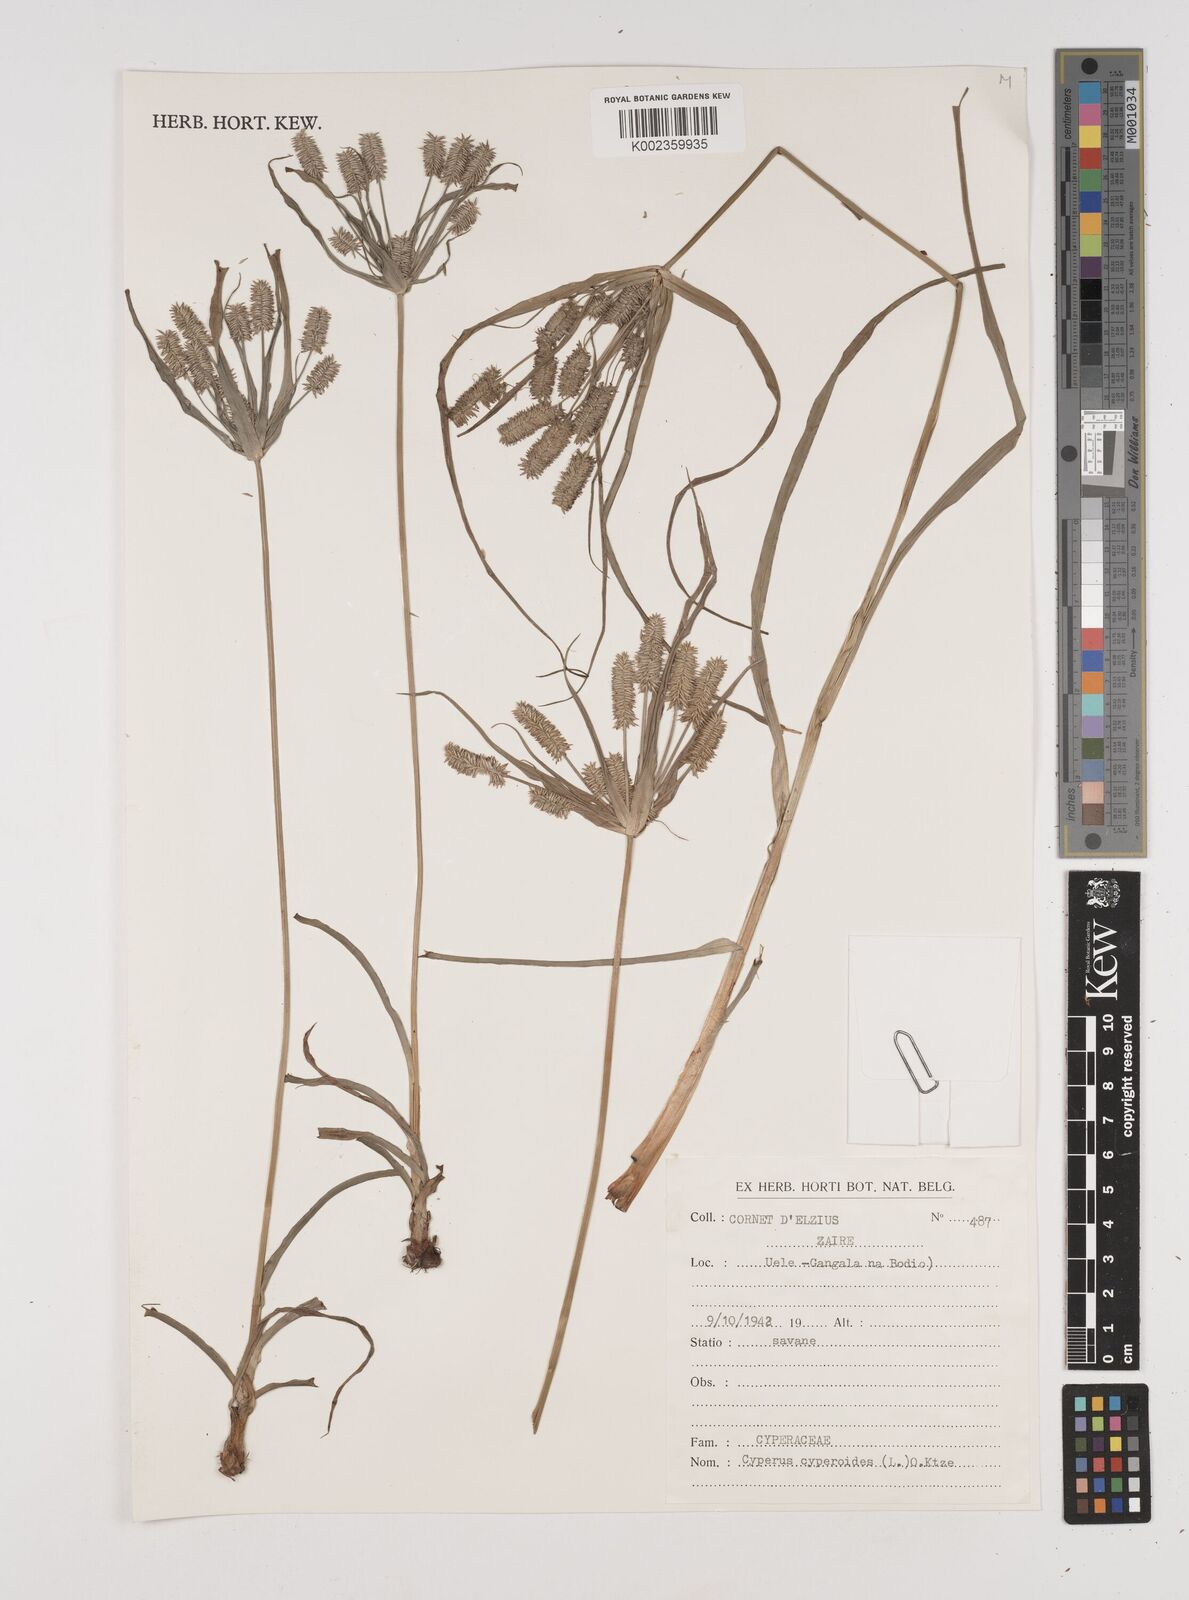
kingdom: Plantae
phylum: Tracheophyta
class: Liliopsida
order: Poales
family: Cyperaceae
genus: Cyperus
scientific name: Cyperus cyperoides
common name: Pacific island flat sedge
